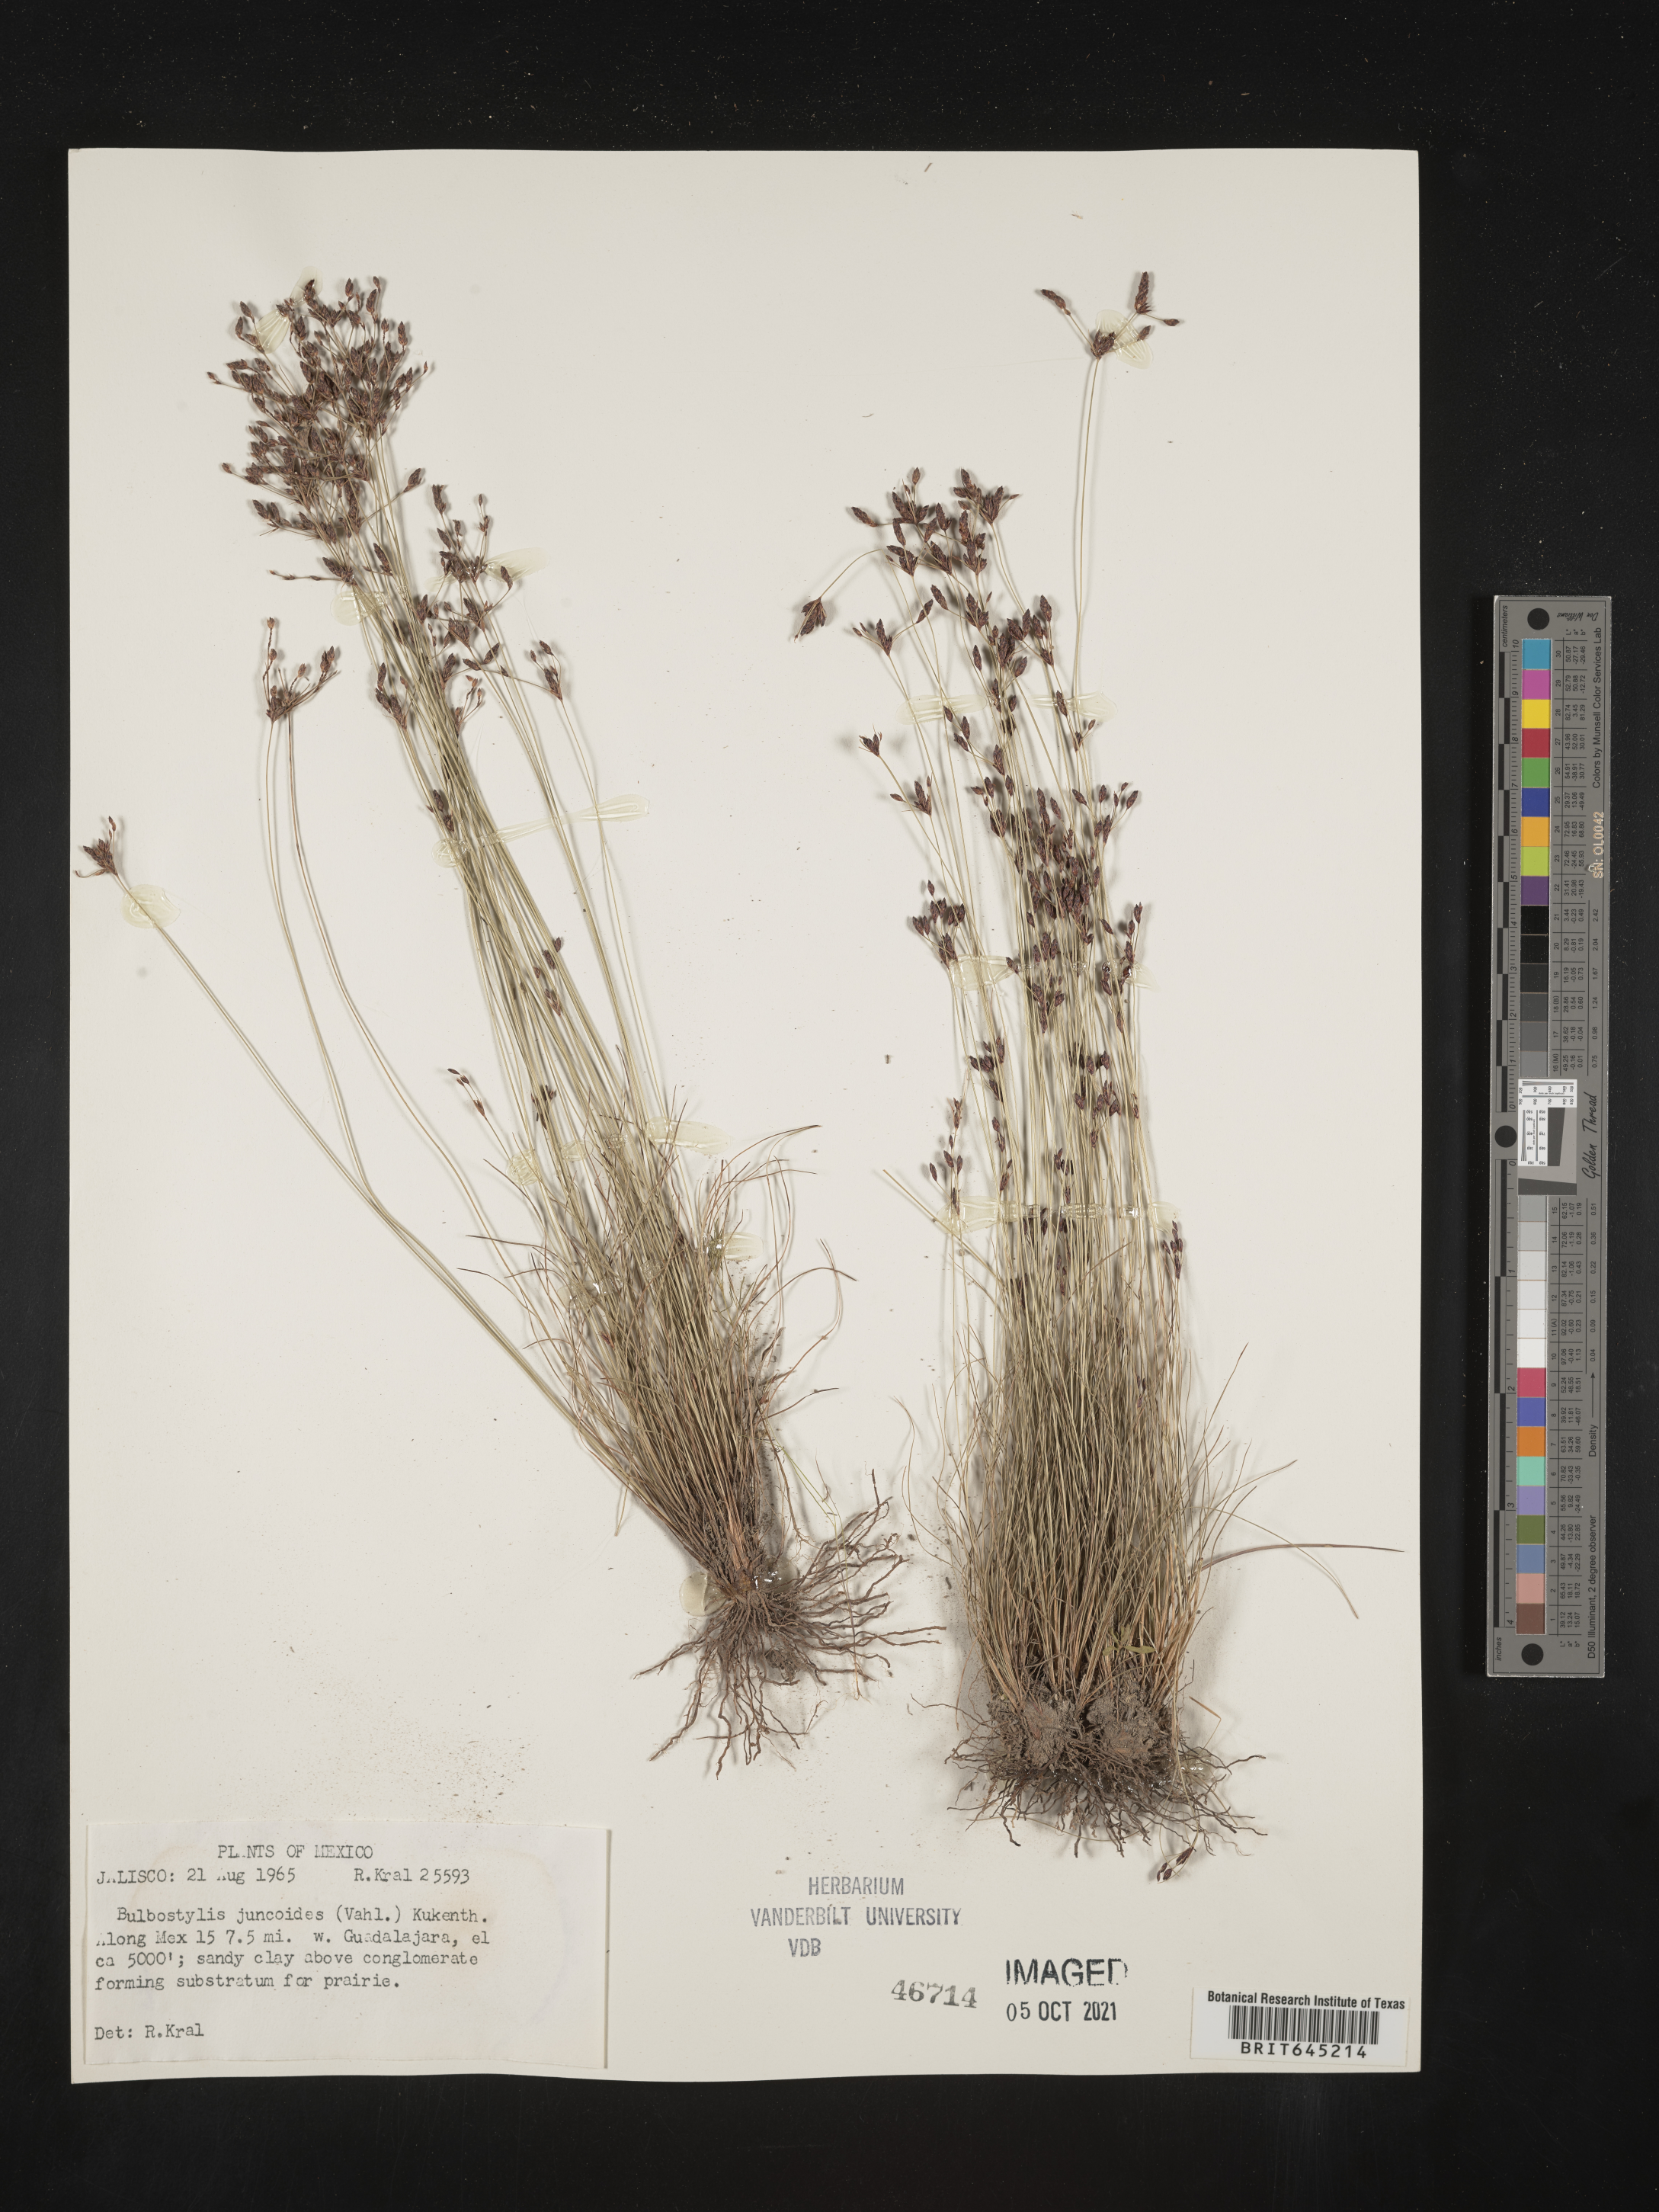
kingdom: Plantae
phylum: Tracheophyta
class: Liliopsida
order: Poales
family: Cyperaceae
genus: Bulbostylis
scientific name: Bulbostylis juncoides
